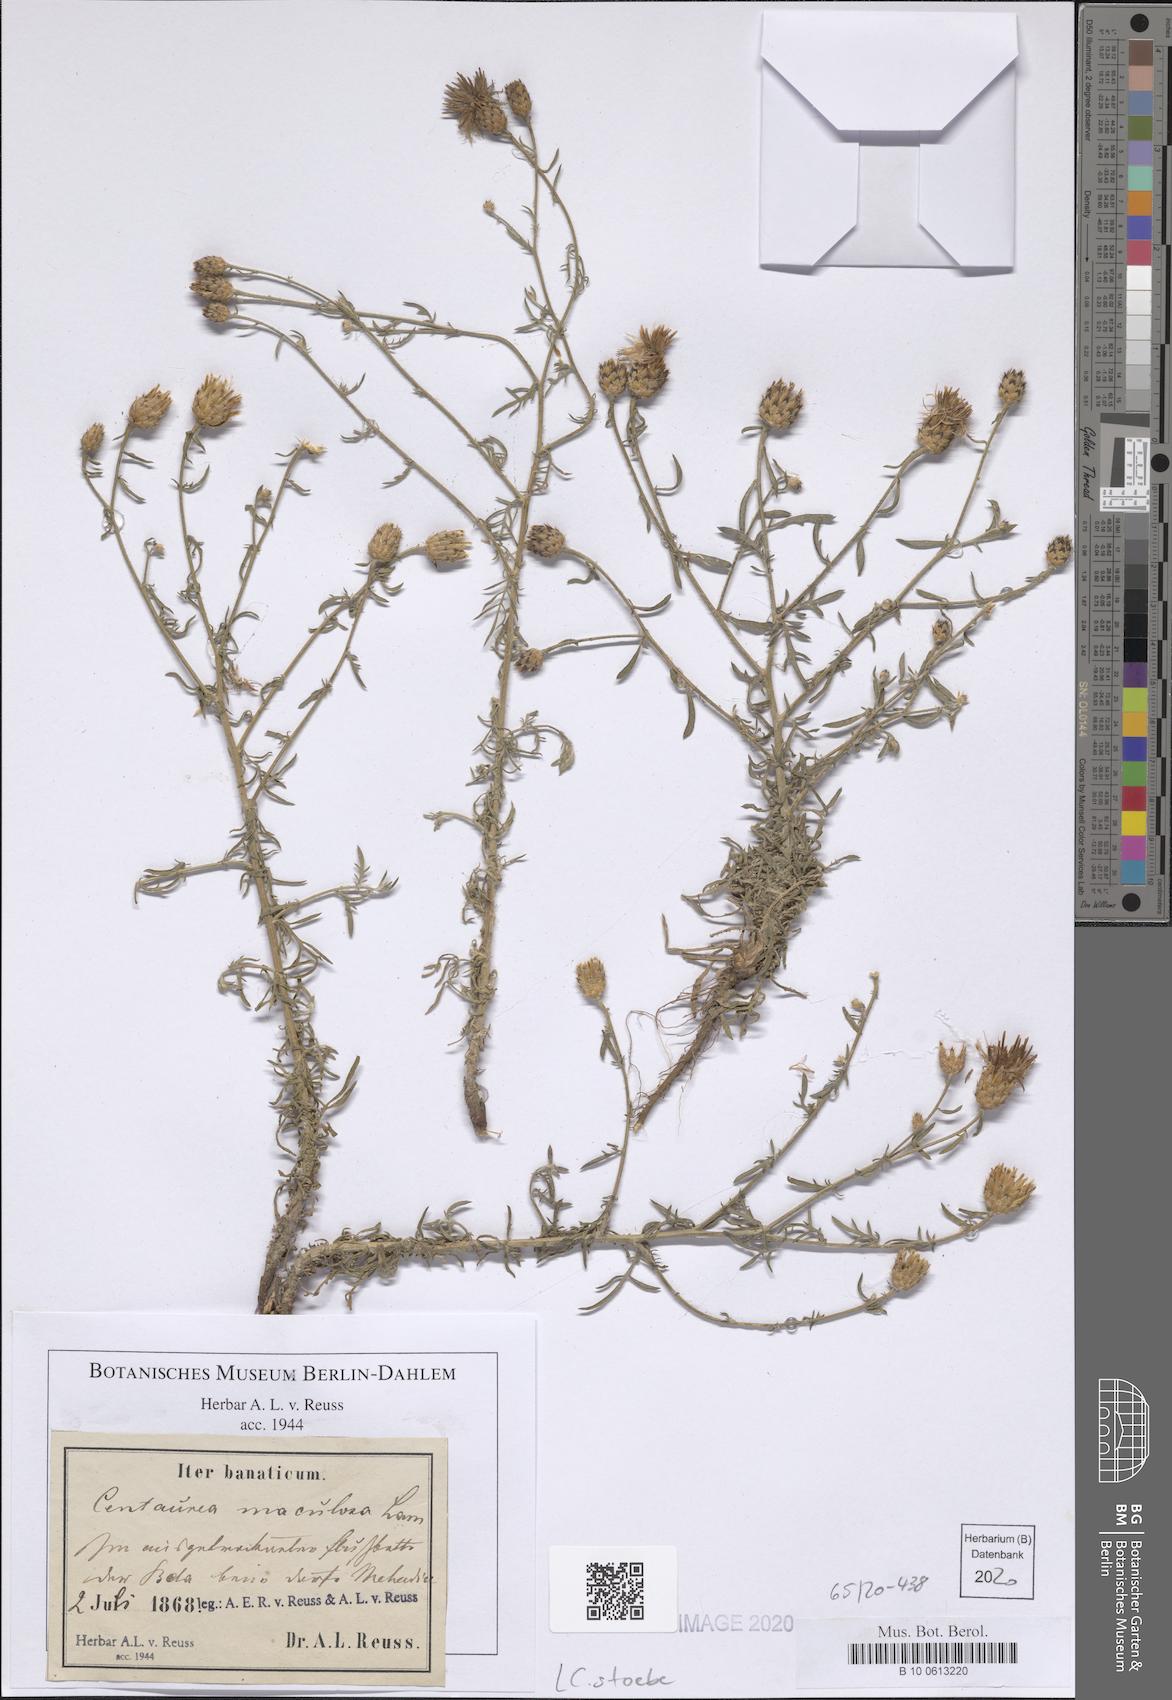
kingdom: Plantae
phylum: Tracheophyta
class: Magnoliopsida
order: Asterales
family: Asteraceae
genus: Centaurea
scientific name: Centaurea stoebe
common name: Spotted knapweed
